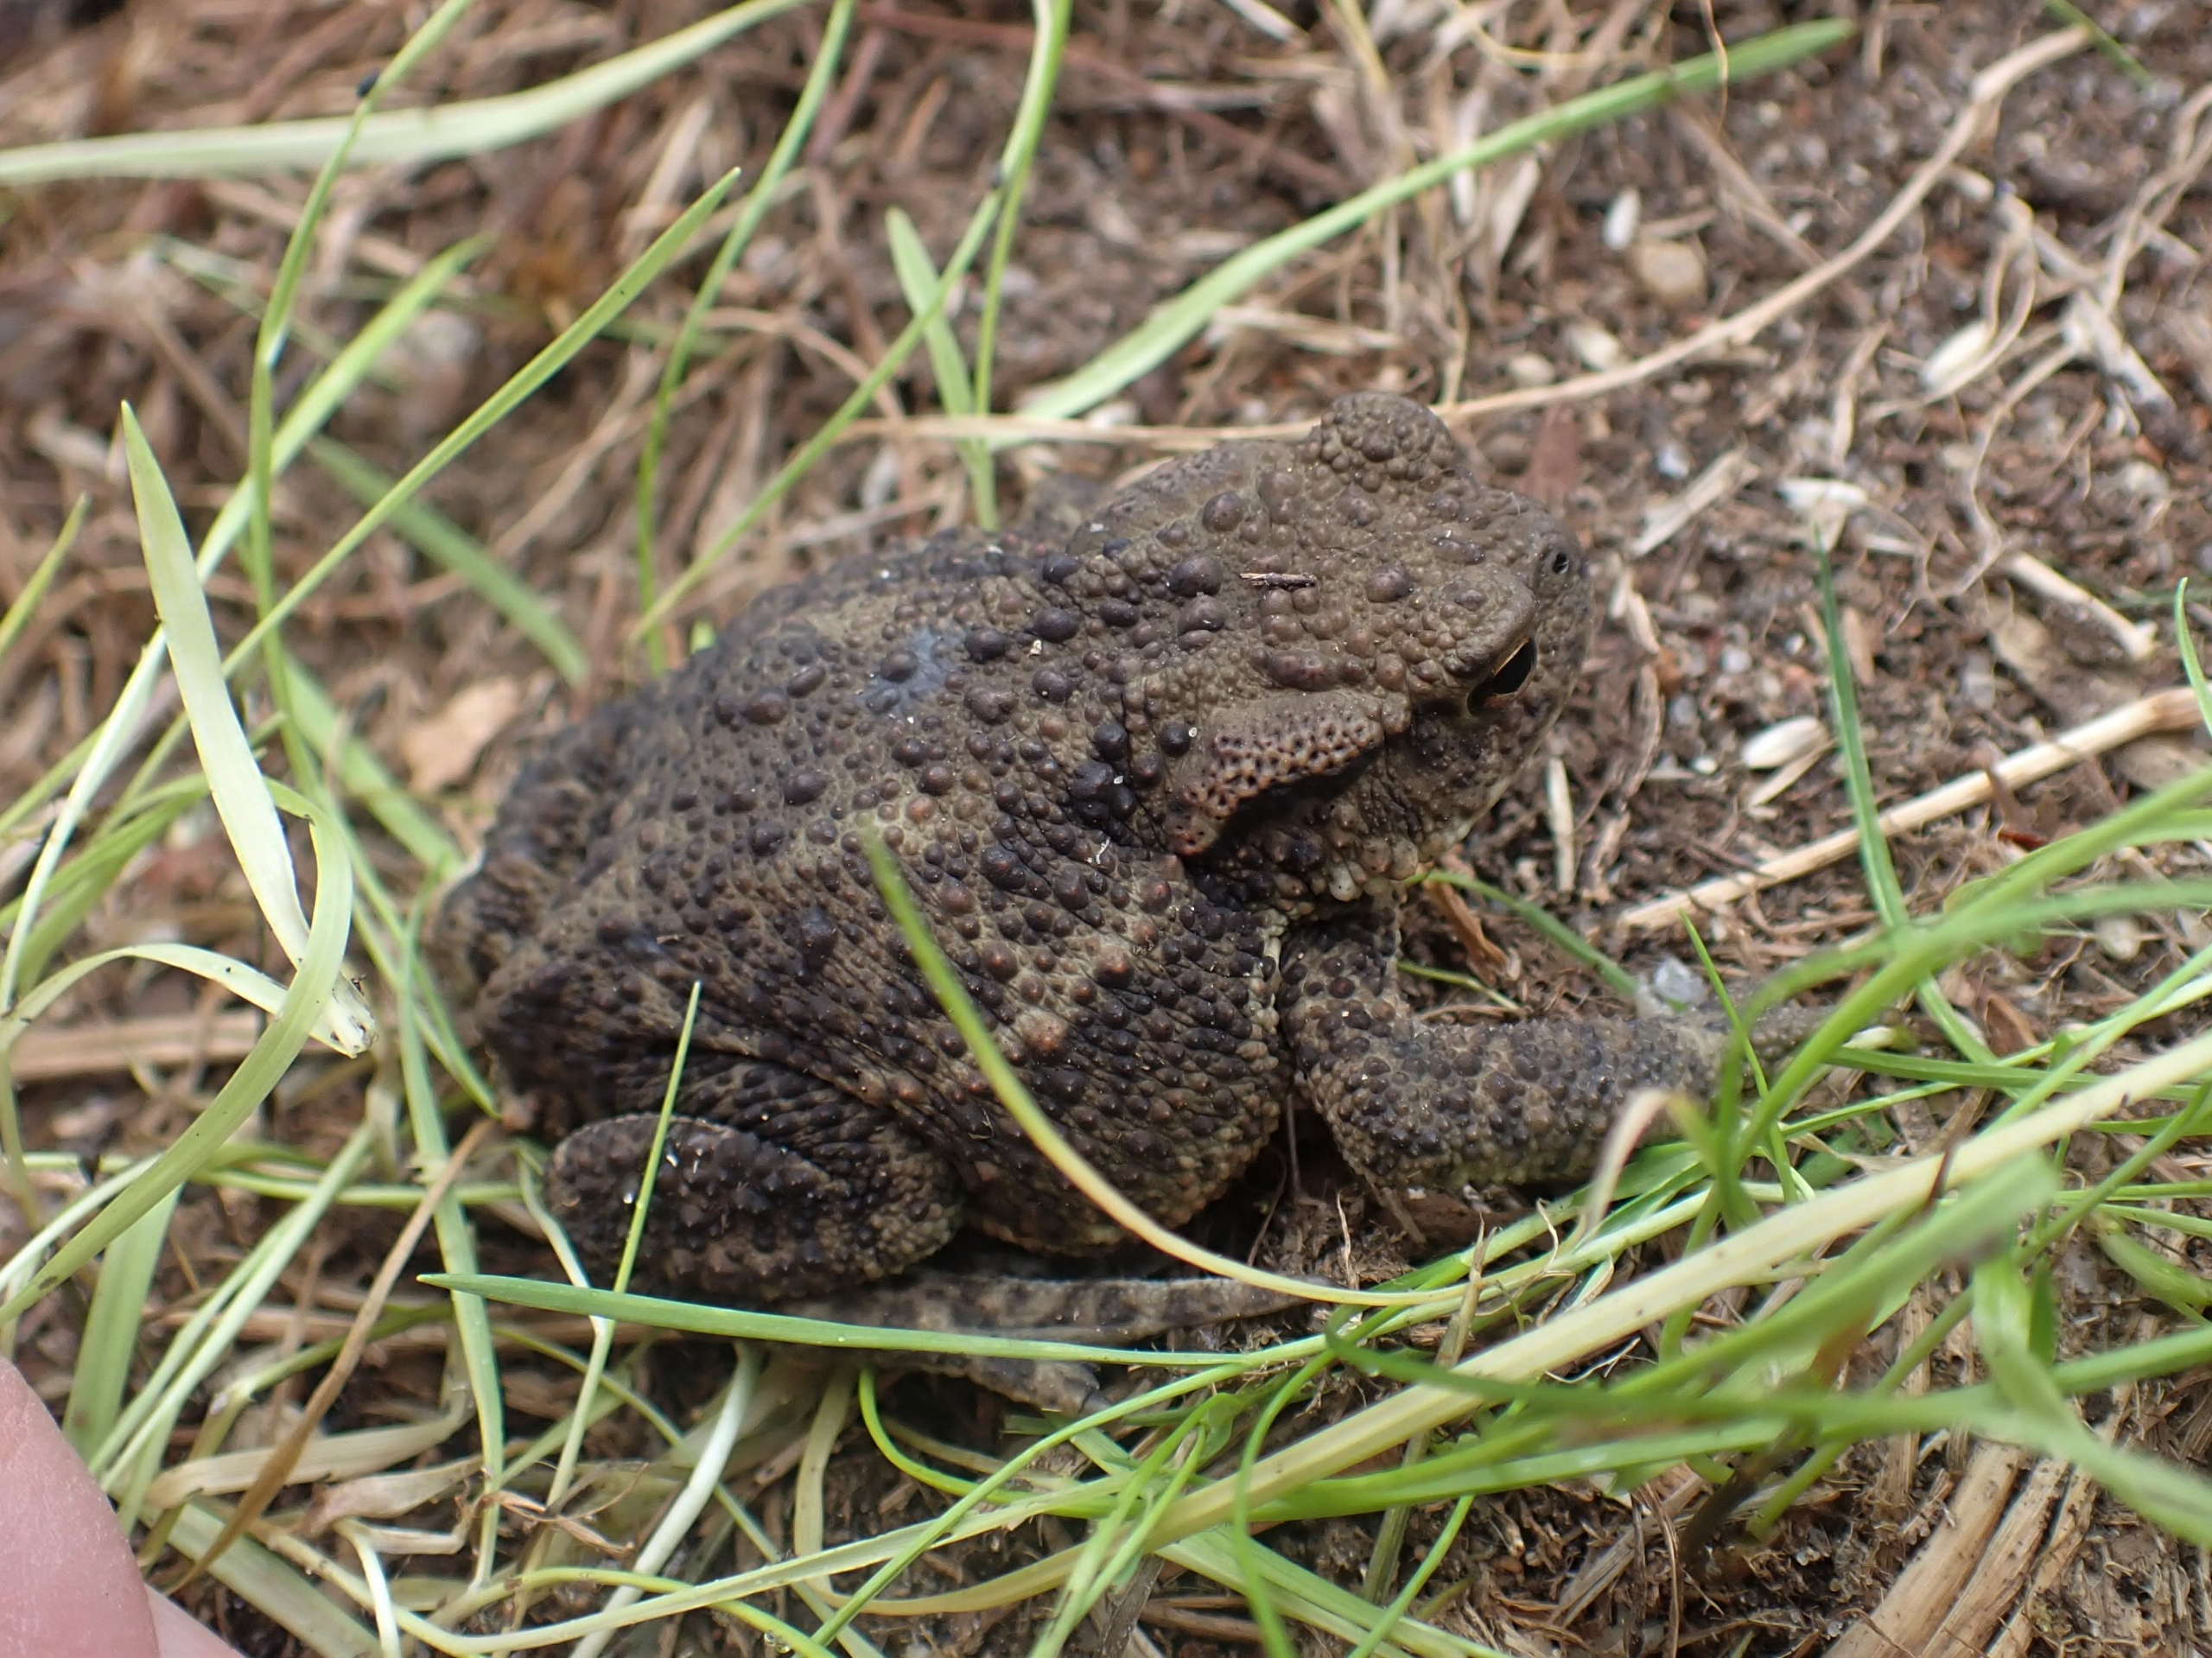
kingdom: Animalia
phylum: Chordata
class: Amphibia
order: Anura
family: Bufonidae
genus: Bufo
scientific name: Bufo bufo
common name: Skrubtudse
